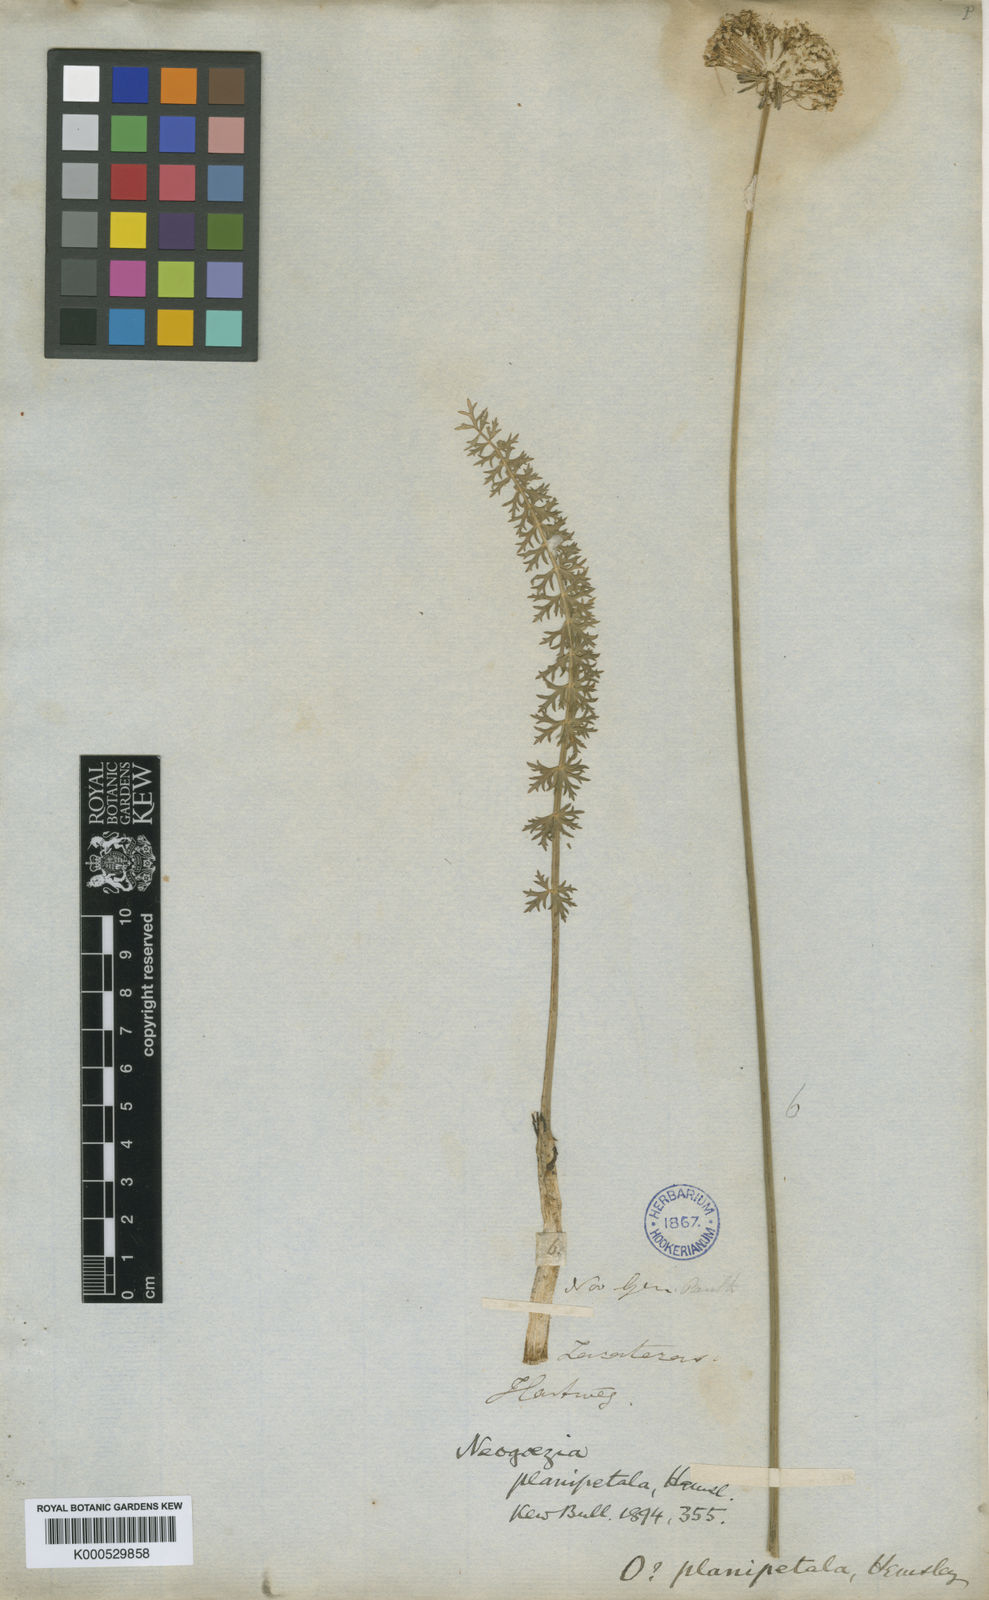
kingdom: Plantae
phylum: Tracheophyta
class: Magnoliopsida
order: Apiales
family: Apiaceae
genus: Neogoezia
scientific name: Neogoezia planipetala
